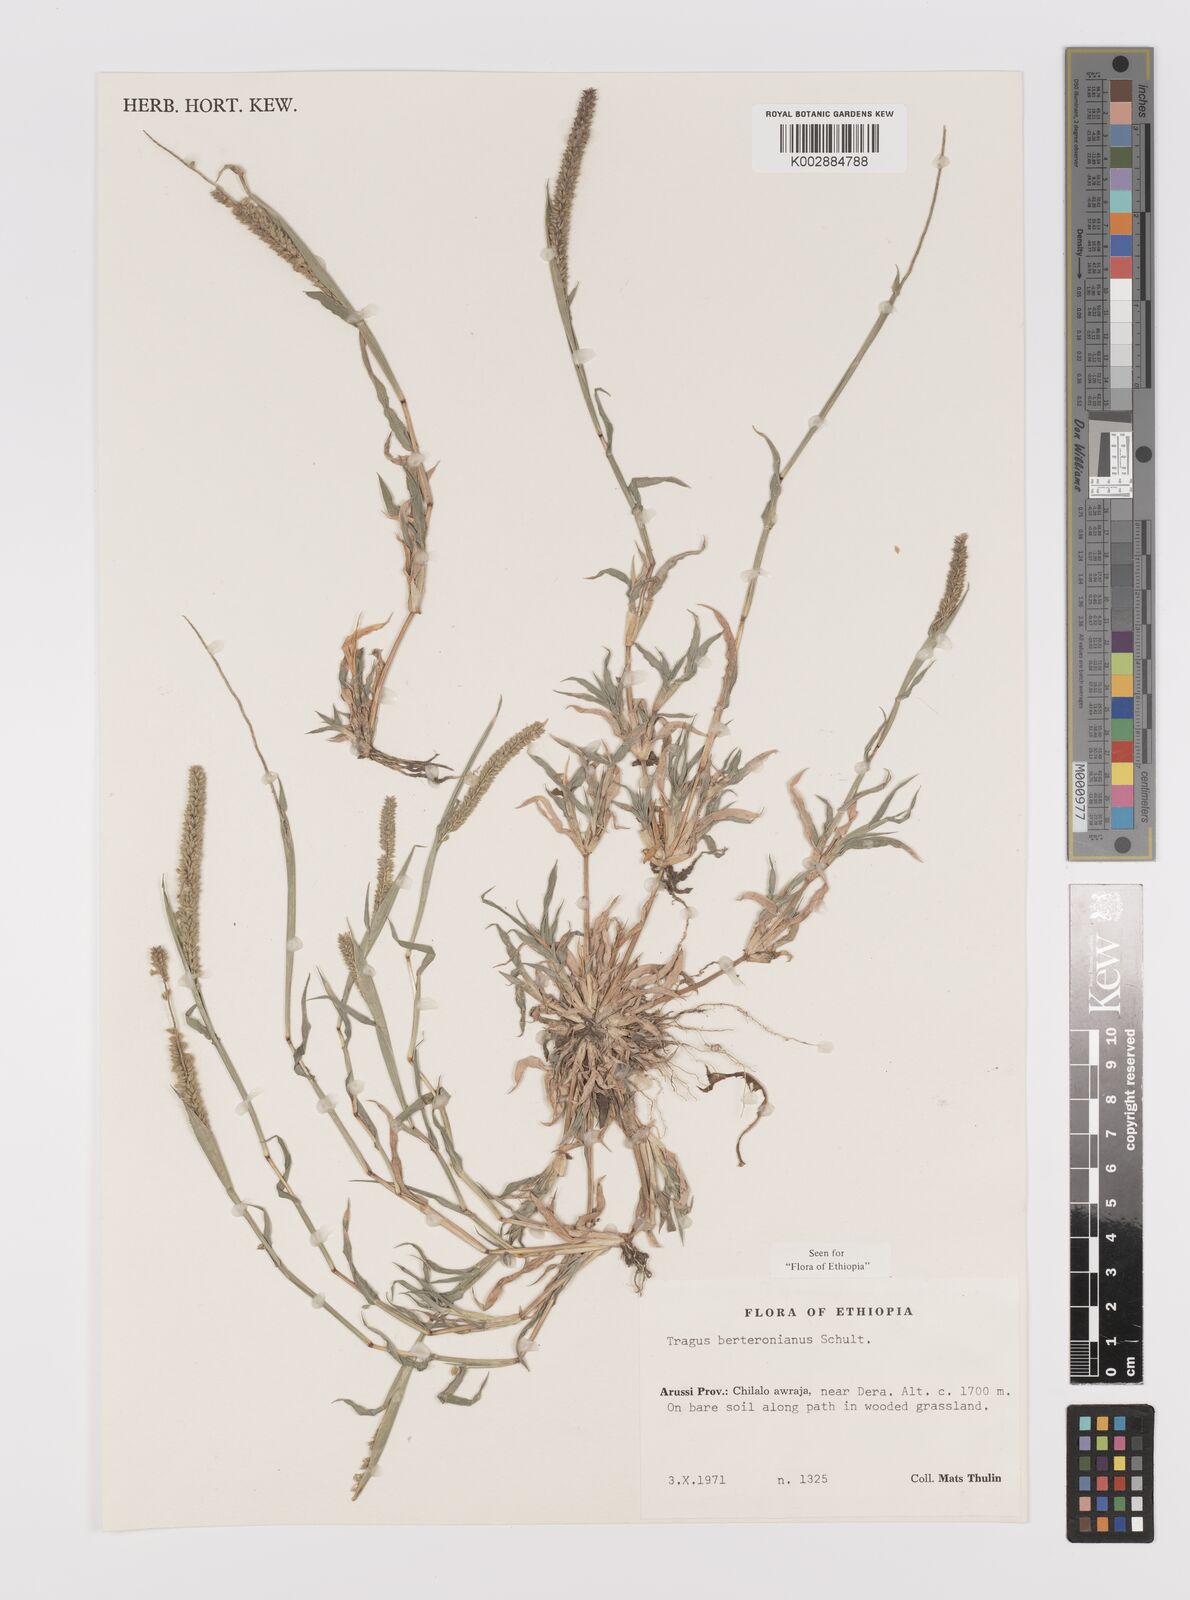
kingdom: Plantae
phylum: Tracheophyta
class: Liliopsida
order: Poales
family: Poaceae
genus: Tragus
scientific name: Tragus berteronianus
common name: African bur-grass
